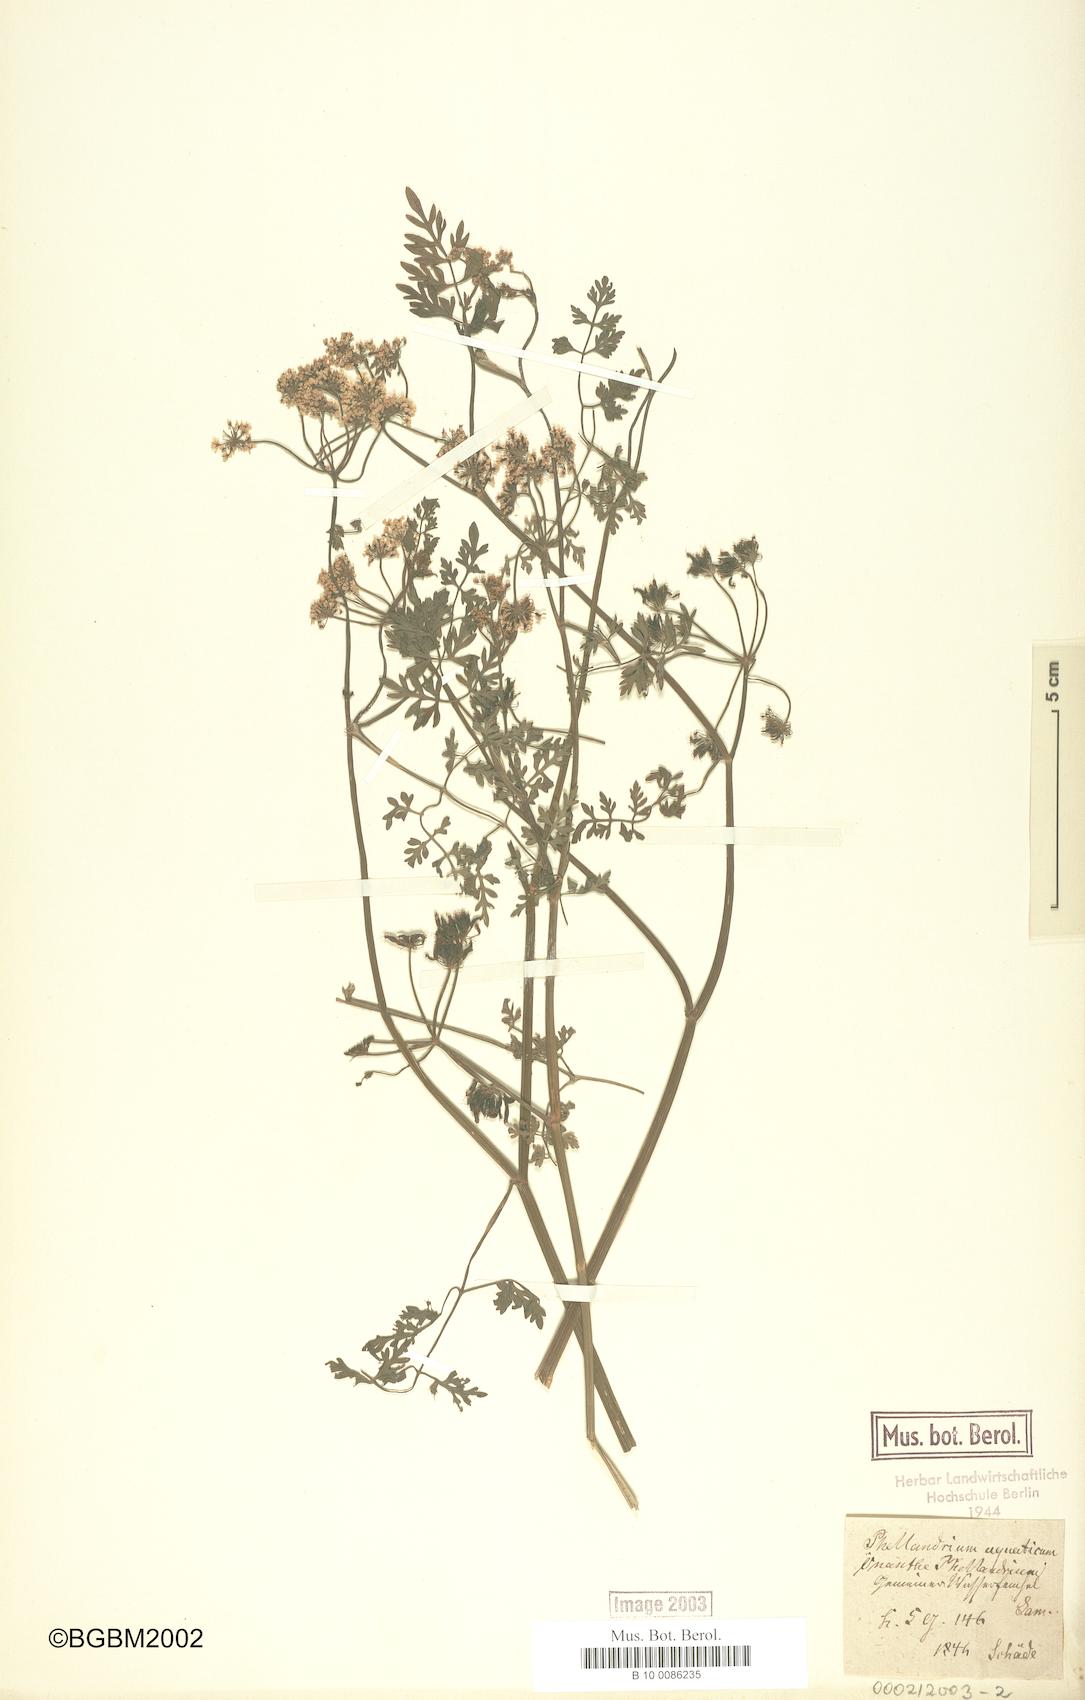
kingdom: Plantae
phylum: Tracheophyta
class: Magnoliopsida
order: Apiales
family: Apiaceae
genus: Oenanthe
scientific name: Oenanthe aquatica
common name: Fine-leaved water-dropwort
